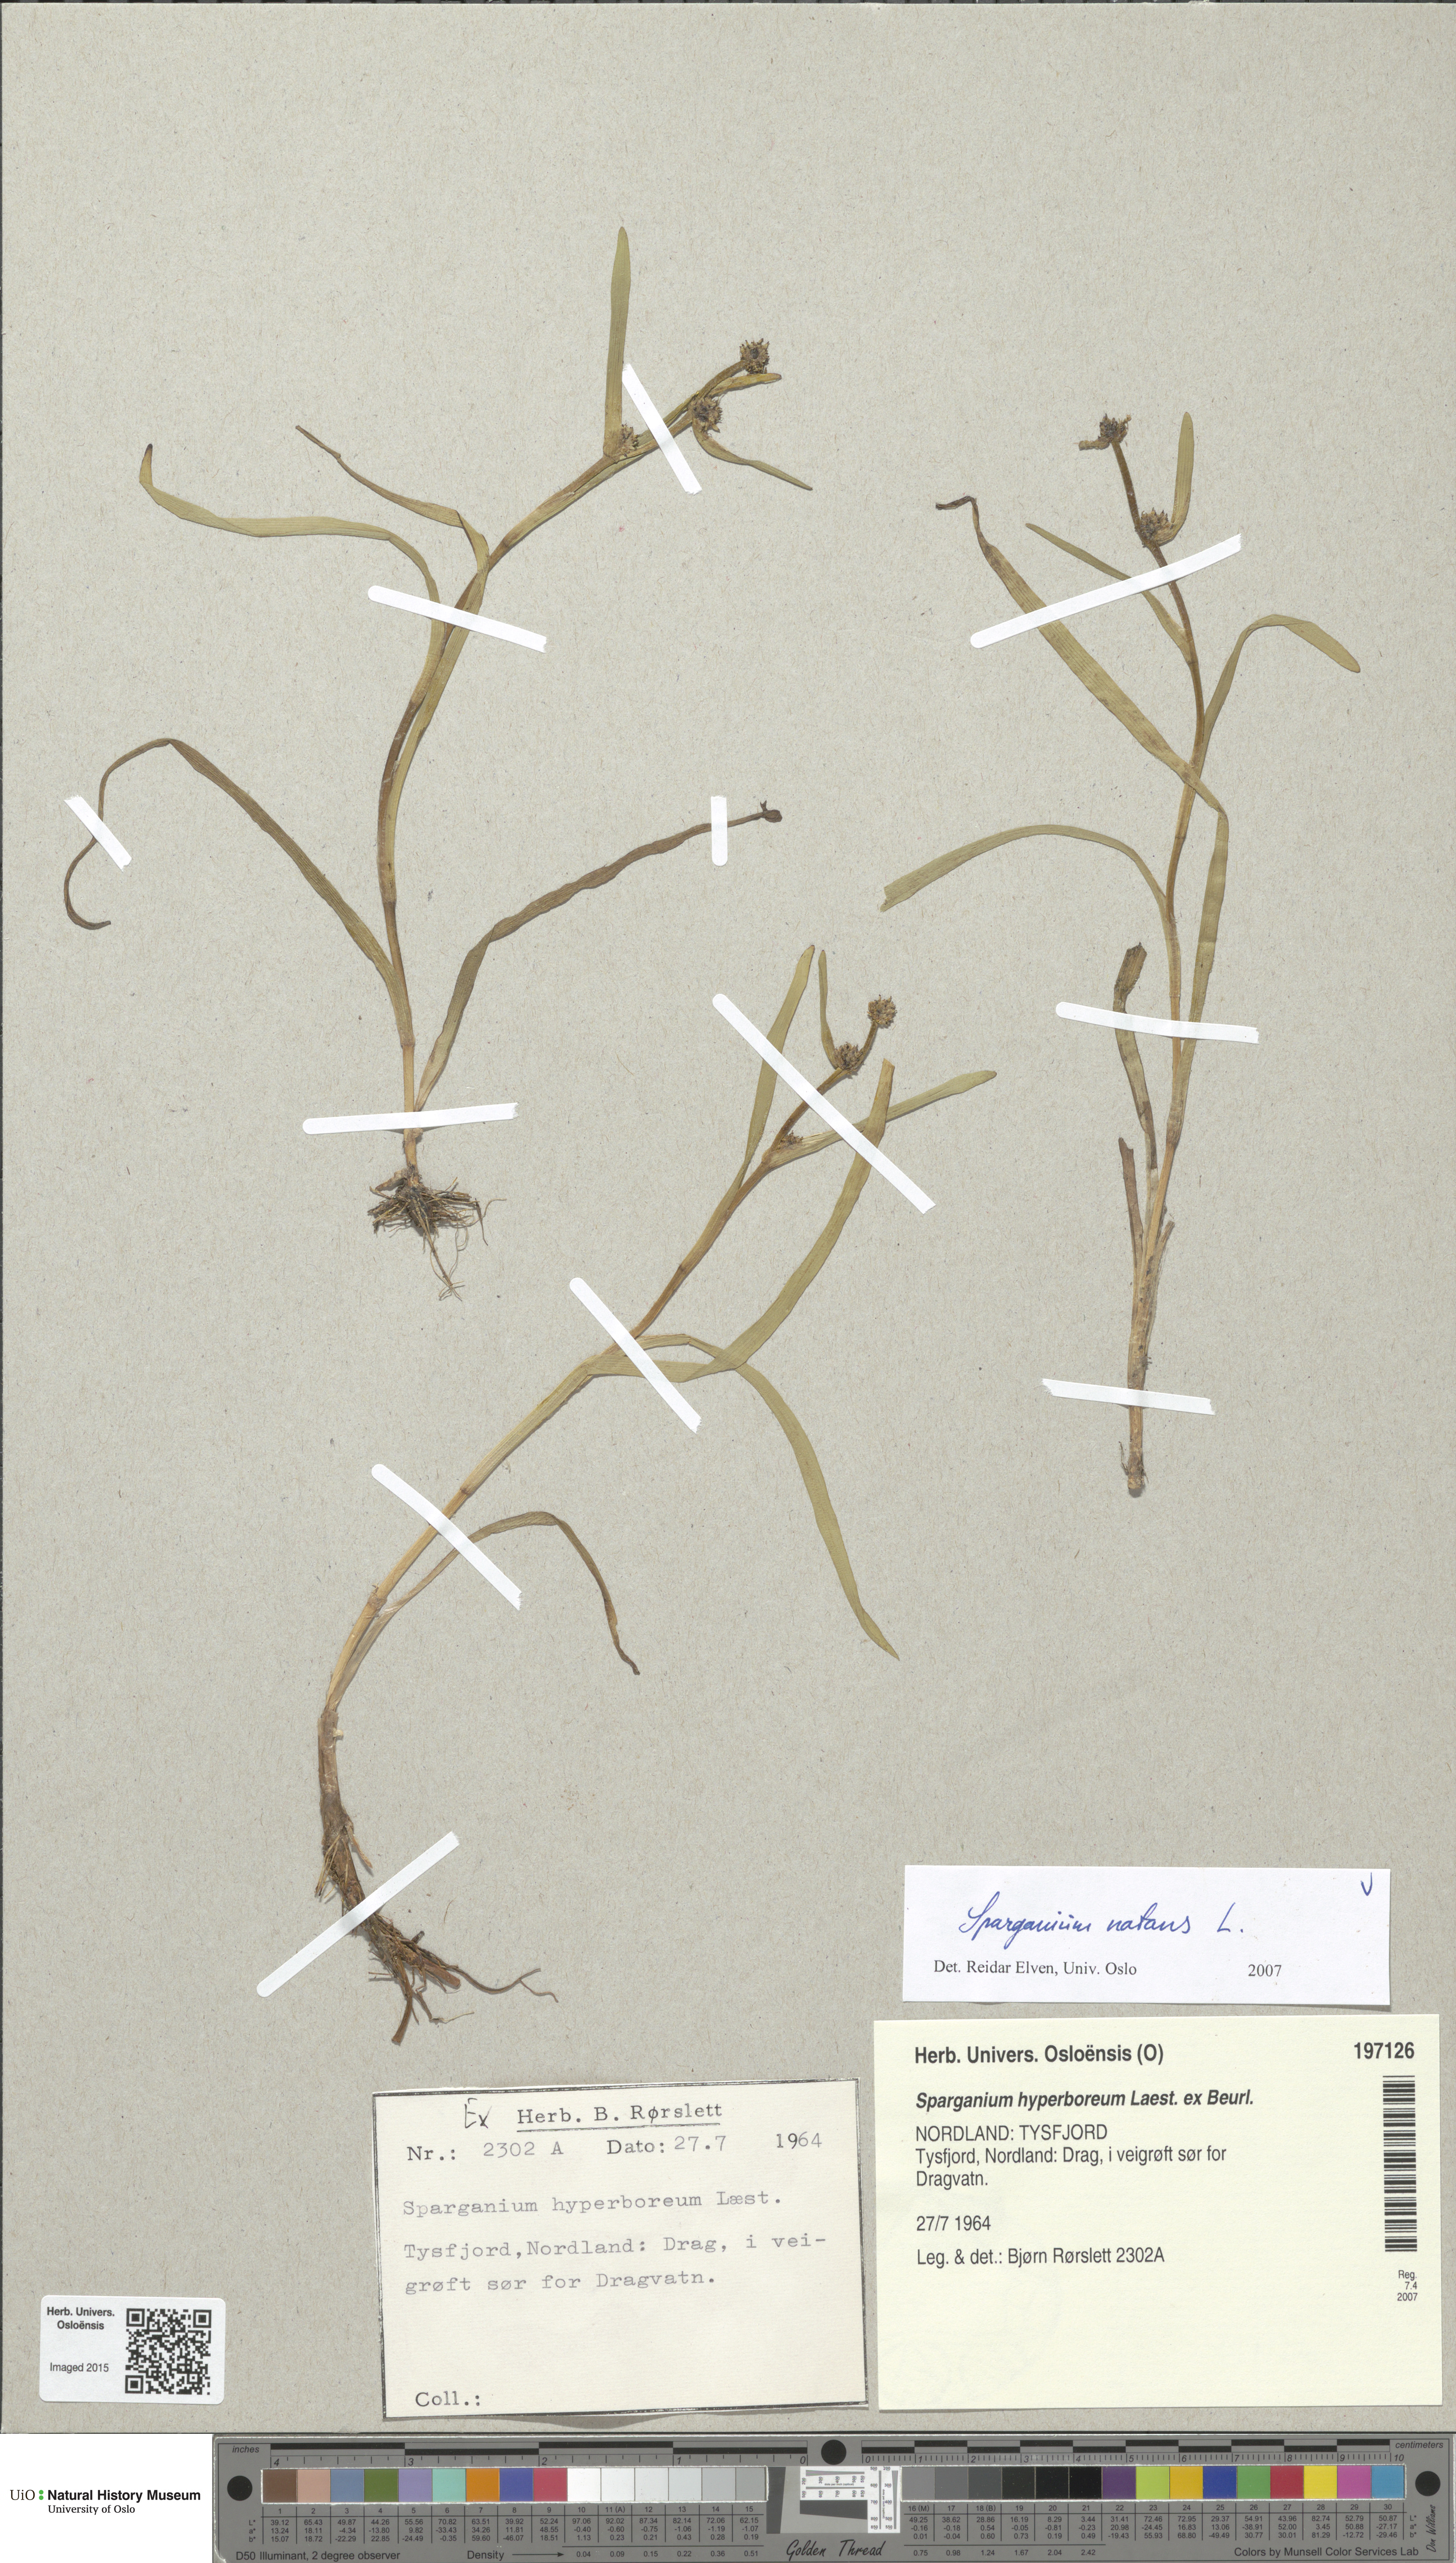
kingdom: Plantae
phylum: Tracheophyta
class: Liliopsida
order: Poales
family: Typhaceae
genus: Sparganium
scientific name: Sparganium natans
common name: Least bur-reed
